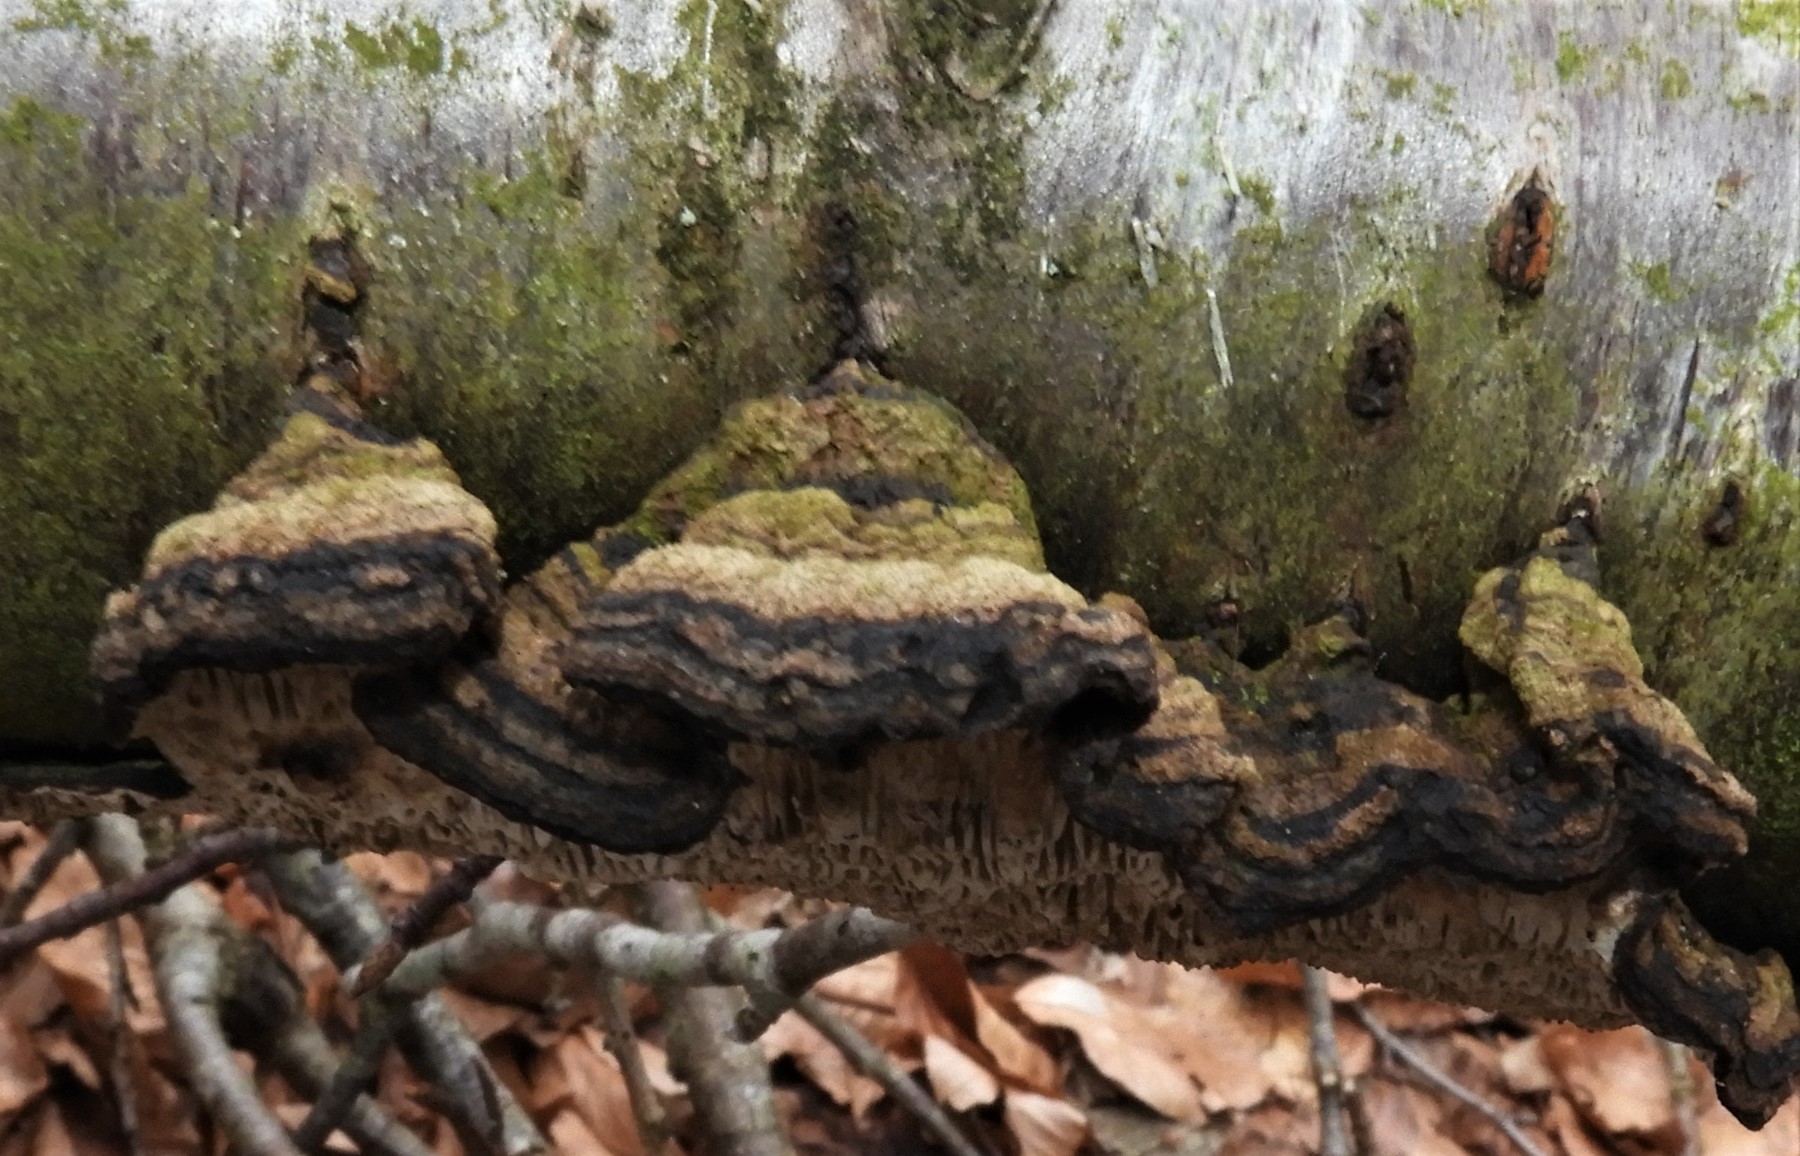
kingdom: Fungi
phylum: Basidiomycota
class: Agaricomycetes
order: Polyporales
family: Polyporaceae
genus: Podofomes
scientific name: Podofomes mollis
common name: blød begporesvamp
